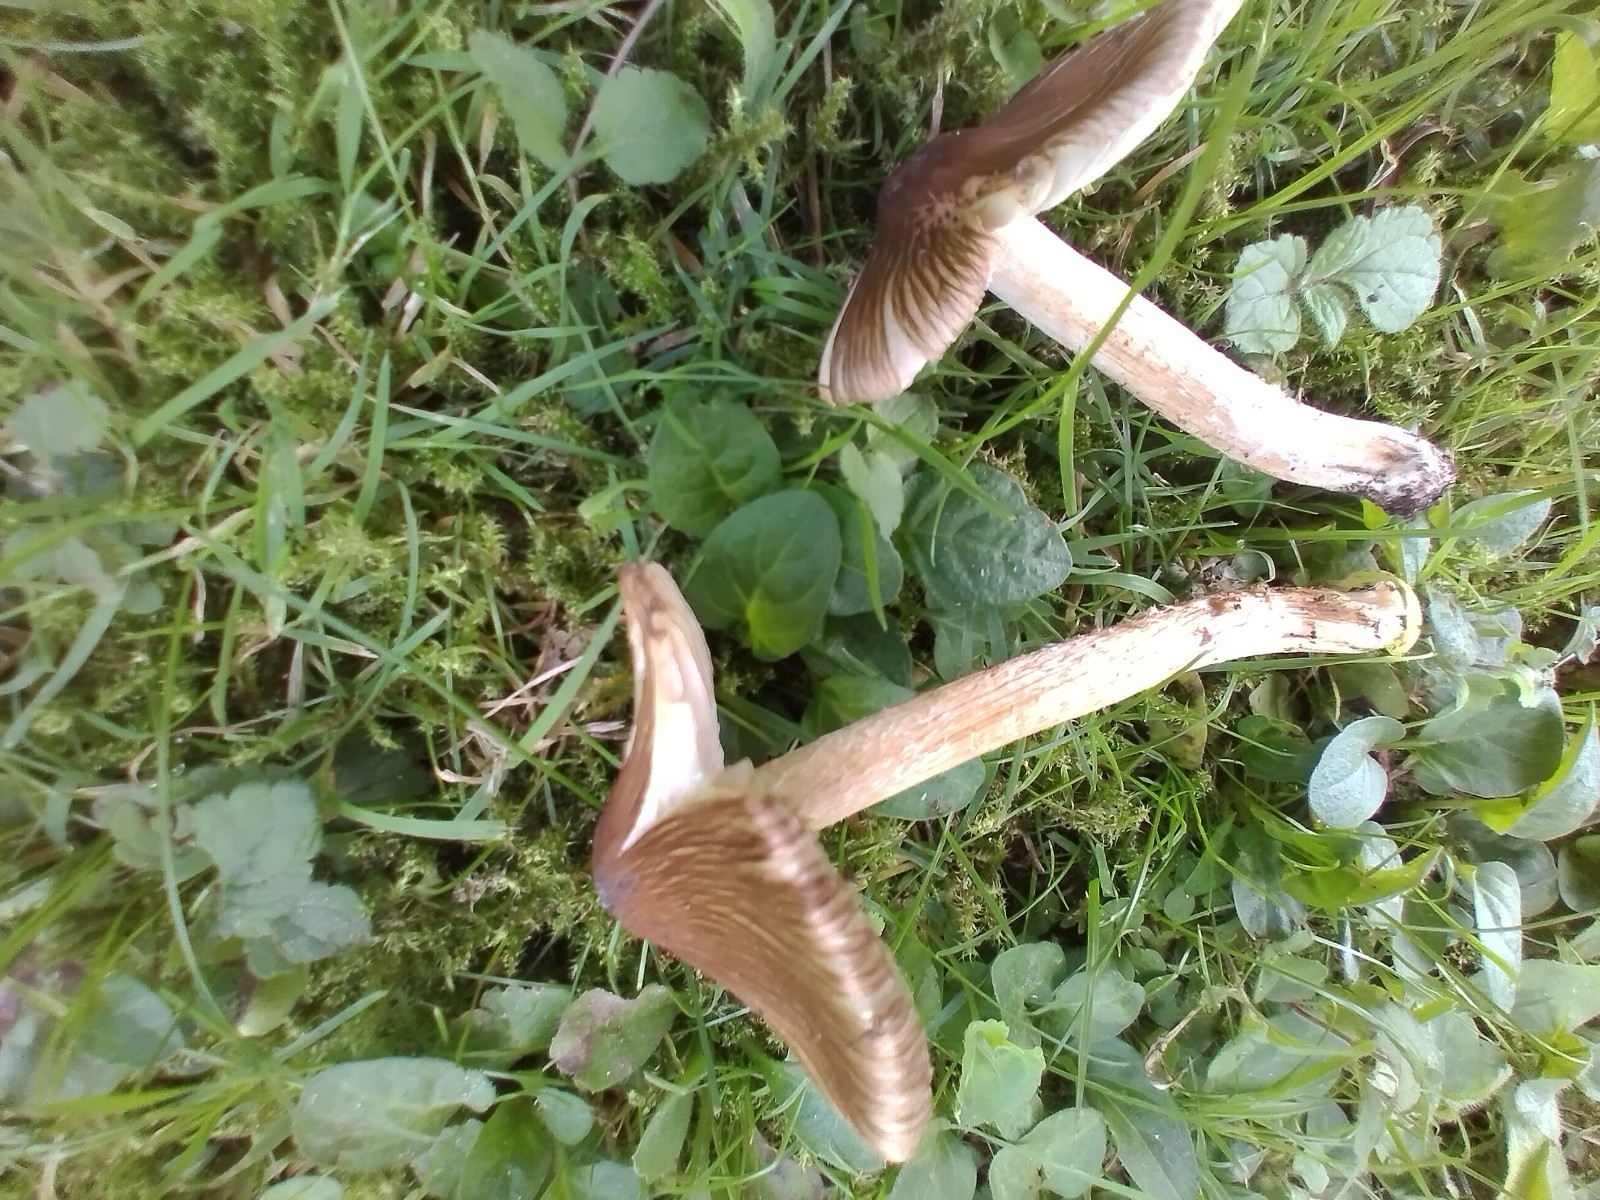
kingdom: Fungi
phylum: Basidiomycota
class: Agaricomycetes
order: Agaricales
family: Inocybaceae
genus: Pseudosperma
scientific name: Pseudosperma
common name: trævlhat
